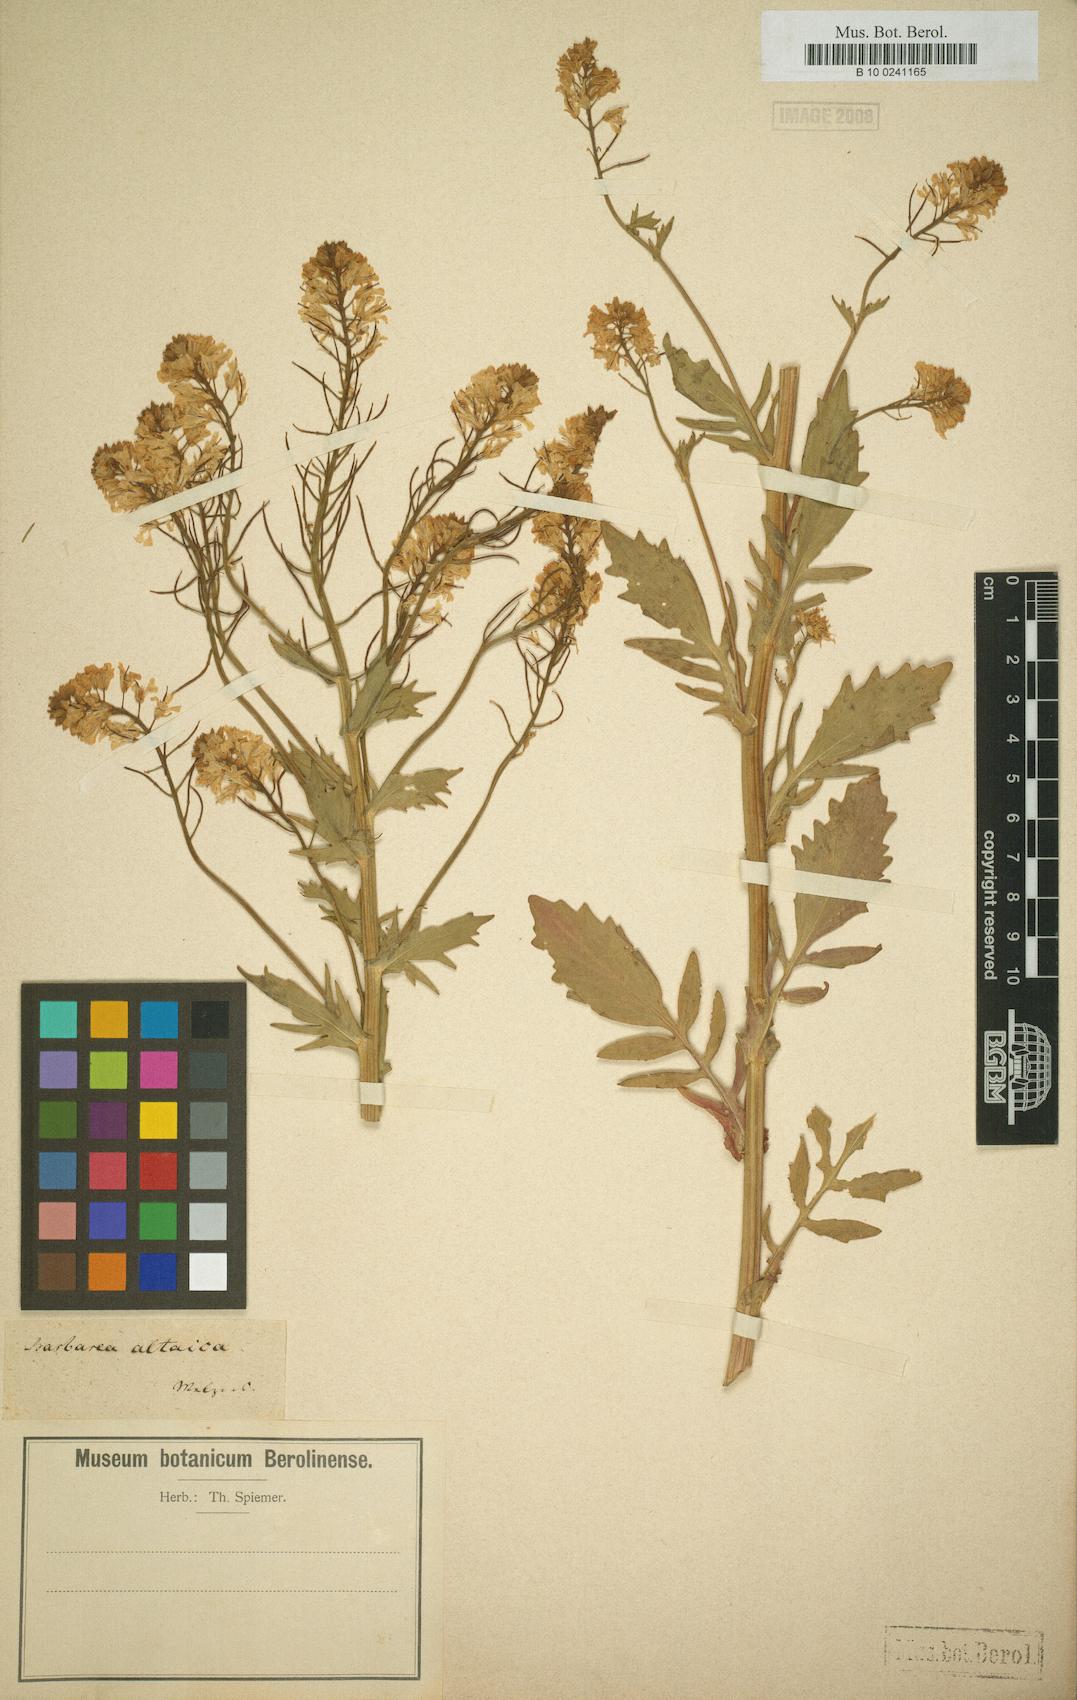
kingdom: Plantae
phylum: Tracheophyta
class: Magnoliopsida
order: Brassicales
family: Brassicaceae
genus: Barbarea
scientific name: Barbarea vulgaris
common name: Cressy-greens
